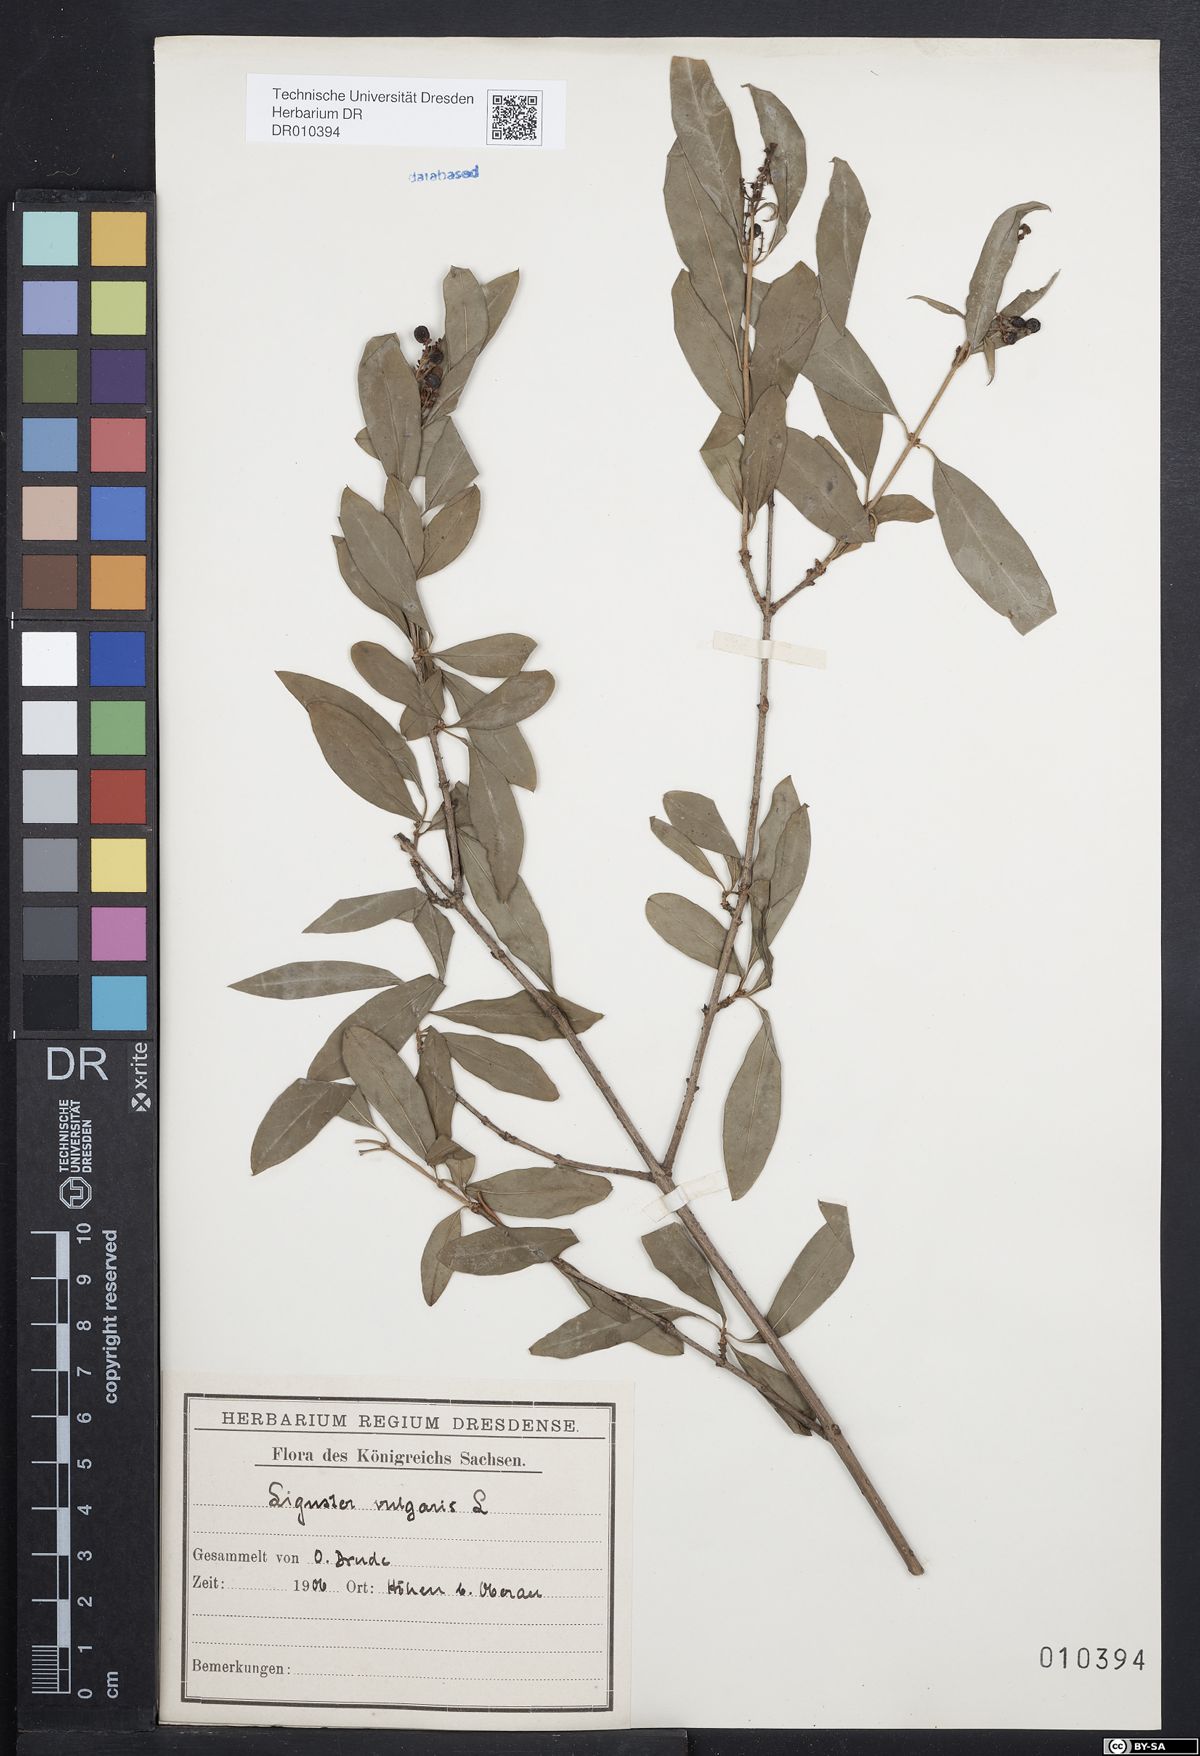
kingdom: Plantae
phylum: Tracheophyta
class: Magnoliopsida
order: Lamiales
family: Oleaceae
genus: Ligustrum
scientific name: Ligustrum vulgare
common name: Wild privet
